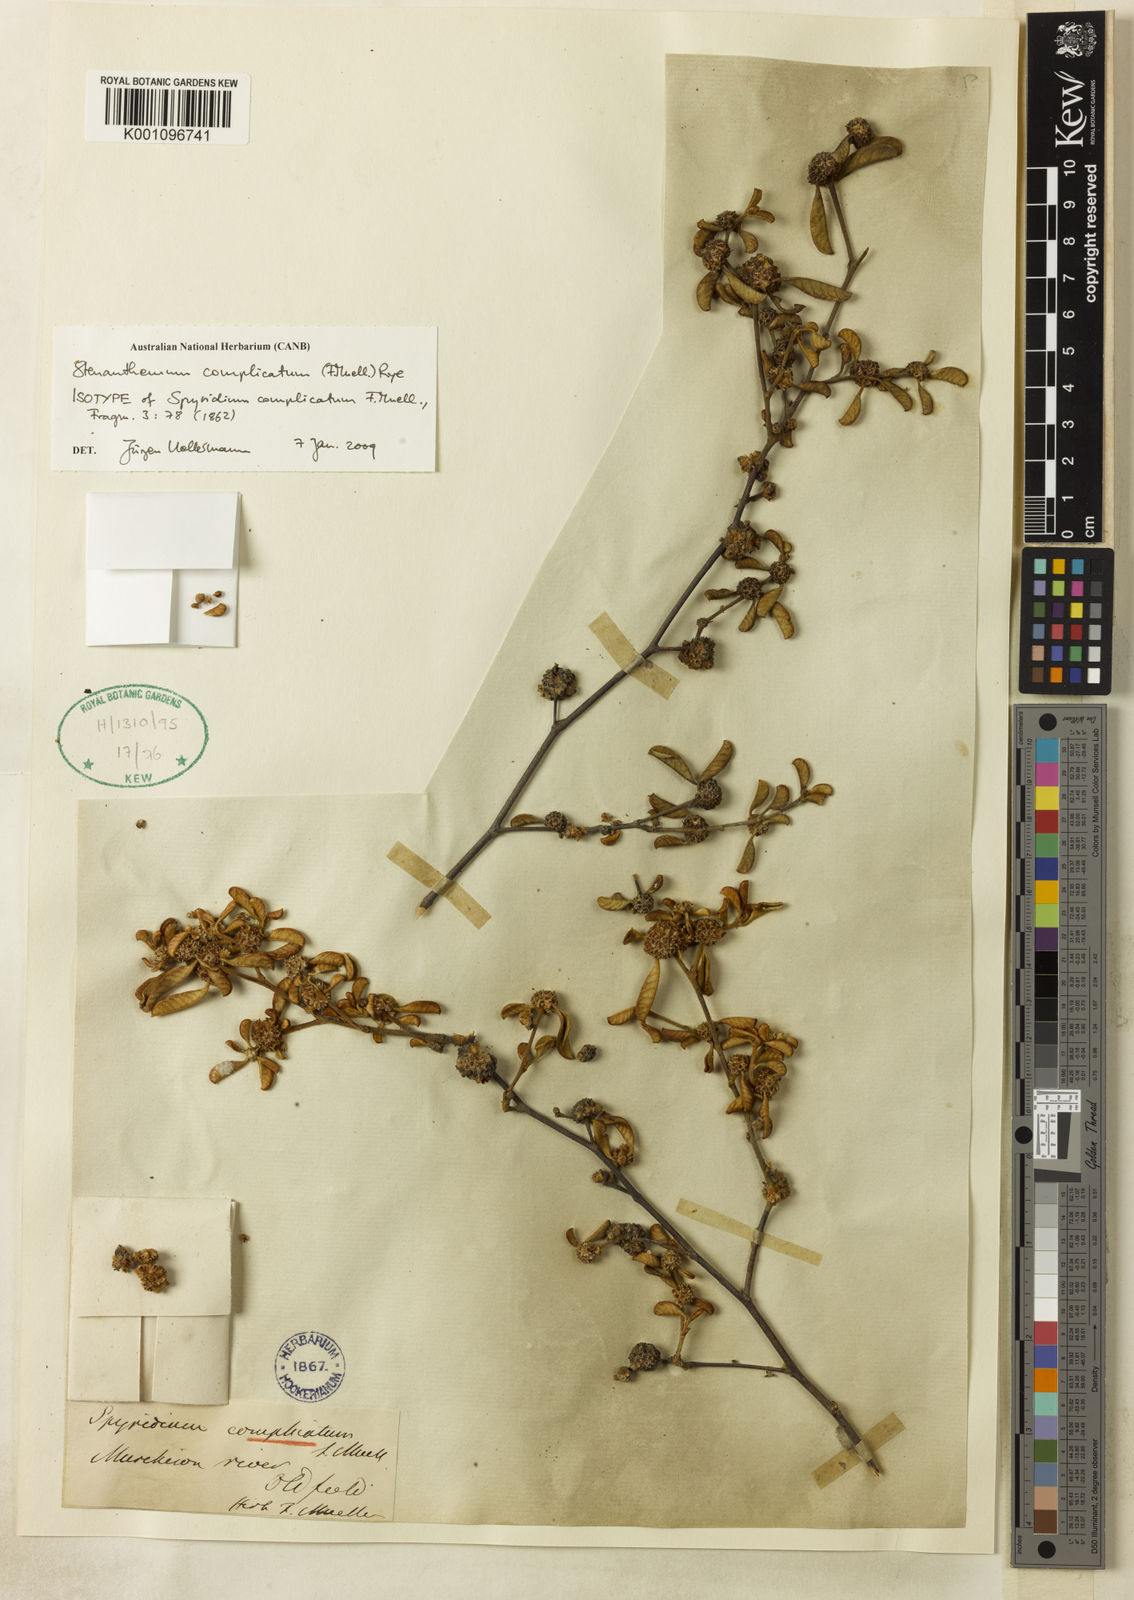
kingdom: Plantae
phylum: Tracheophyta
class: Magnoliopsida
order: Rosales
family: Rhamnaceae
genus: Stenanthemum
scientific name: Stenanthemum complicatum
